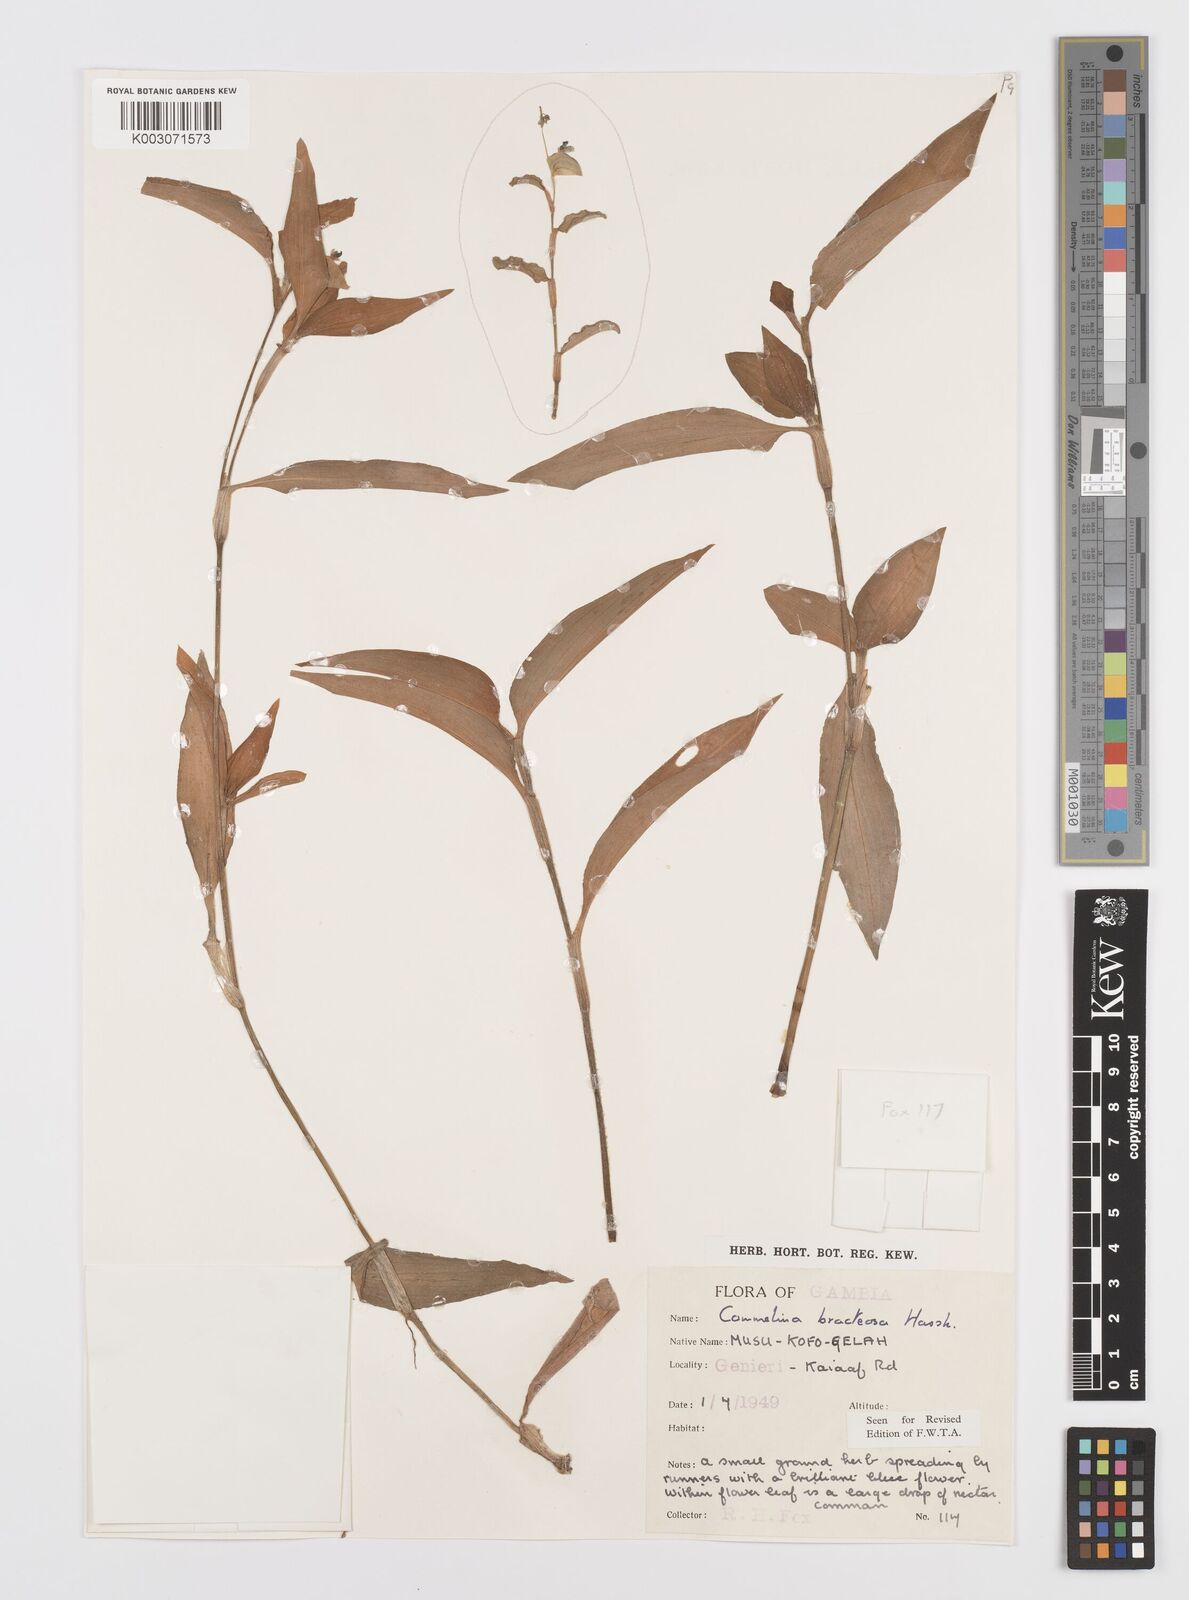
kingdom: Plantae
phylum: Tracheophyta
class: Liliopsida
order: Commelinales
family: Commelinaceae
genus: Commelina
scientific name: Commelina bracteosa
